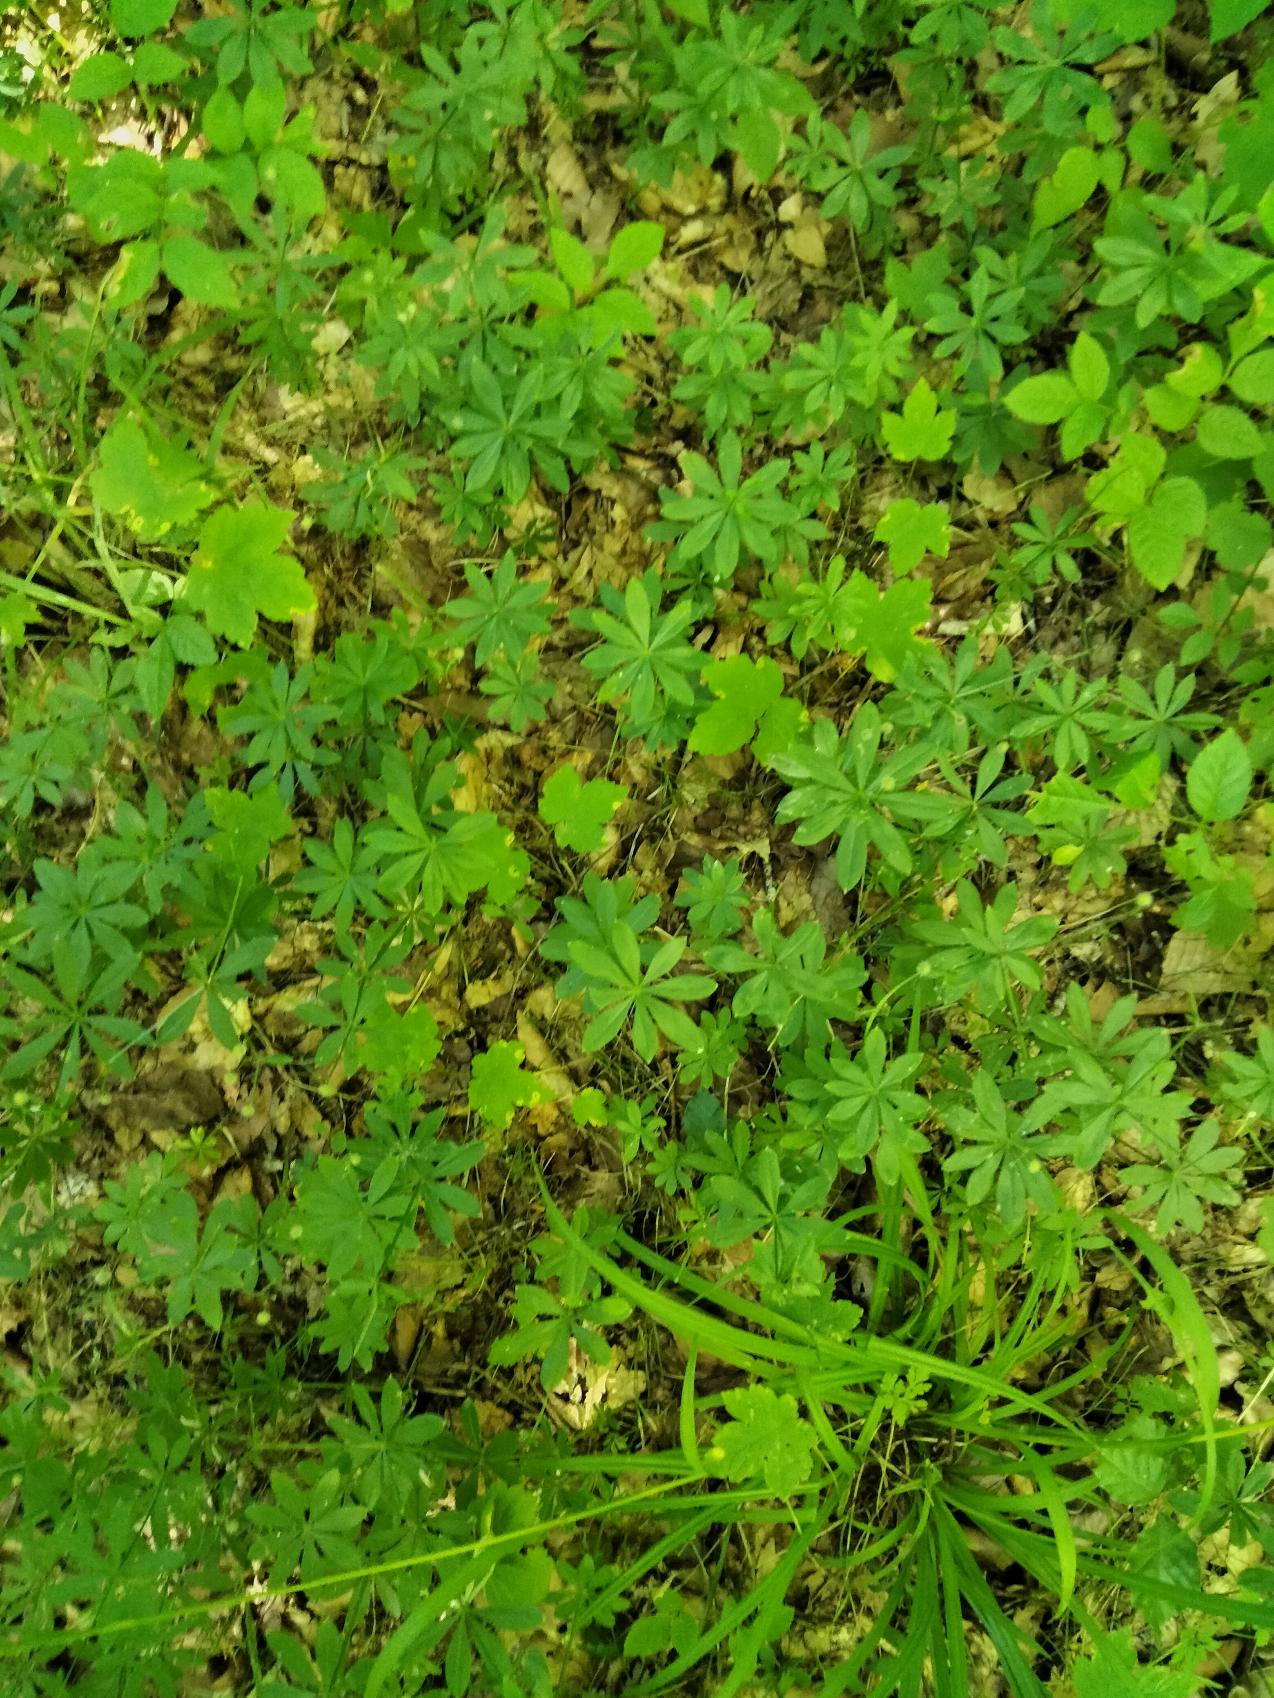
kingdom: Plantae
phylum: Tracheophyta
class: Magnoliopsida
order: Gentianales
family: Rubiaceae
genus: Galium
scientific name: Galium odoratum
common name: Skovmærke
